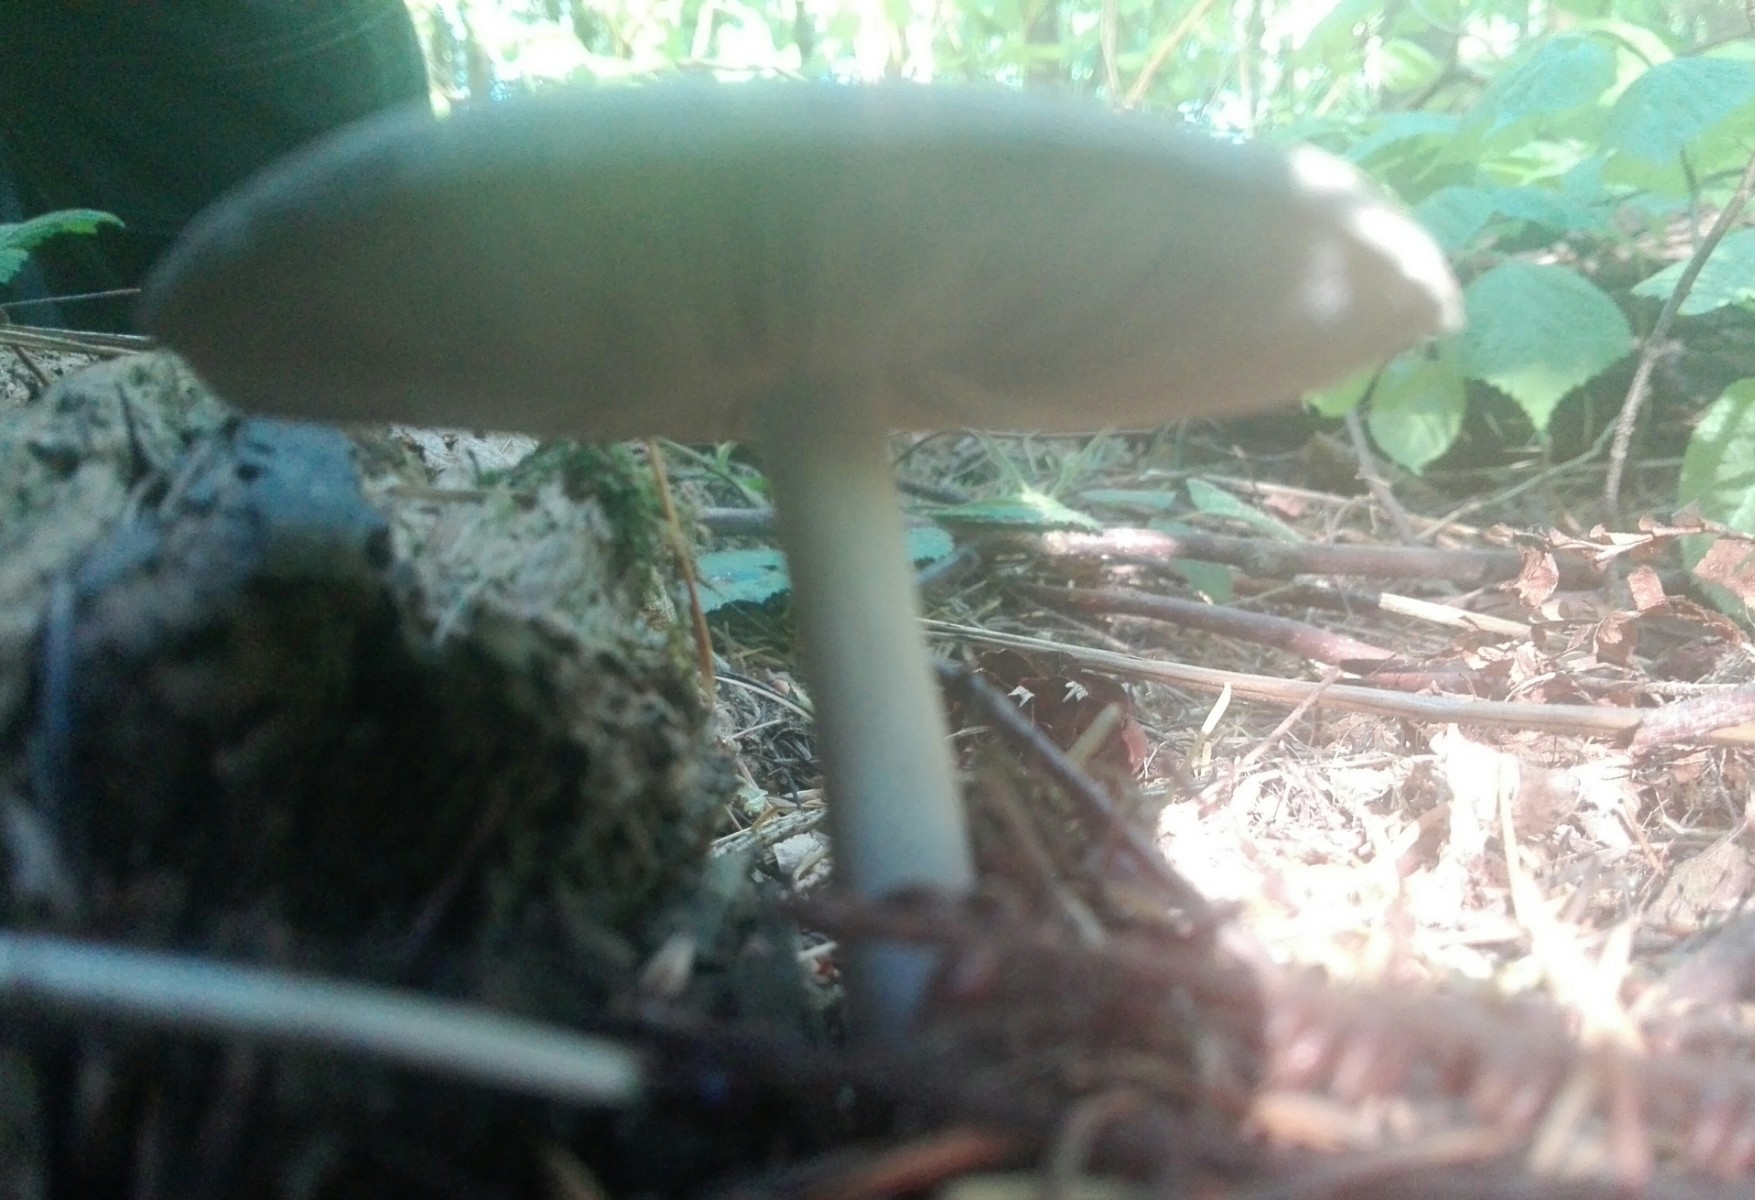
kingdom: Fungi
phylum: Basidiomycota
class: Agaricomycetes
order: Agaricales
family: Pluteaceae
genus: Pluteus
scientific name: Pluteus
